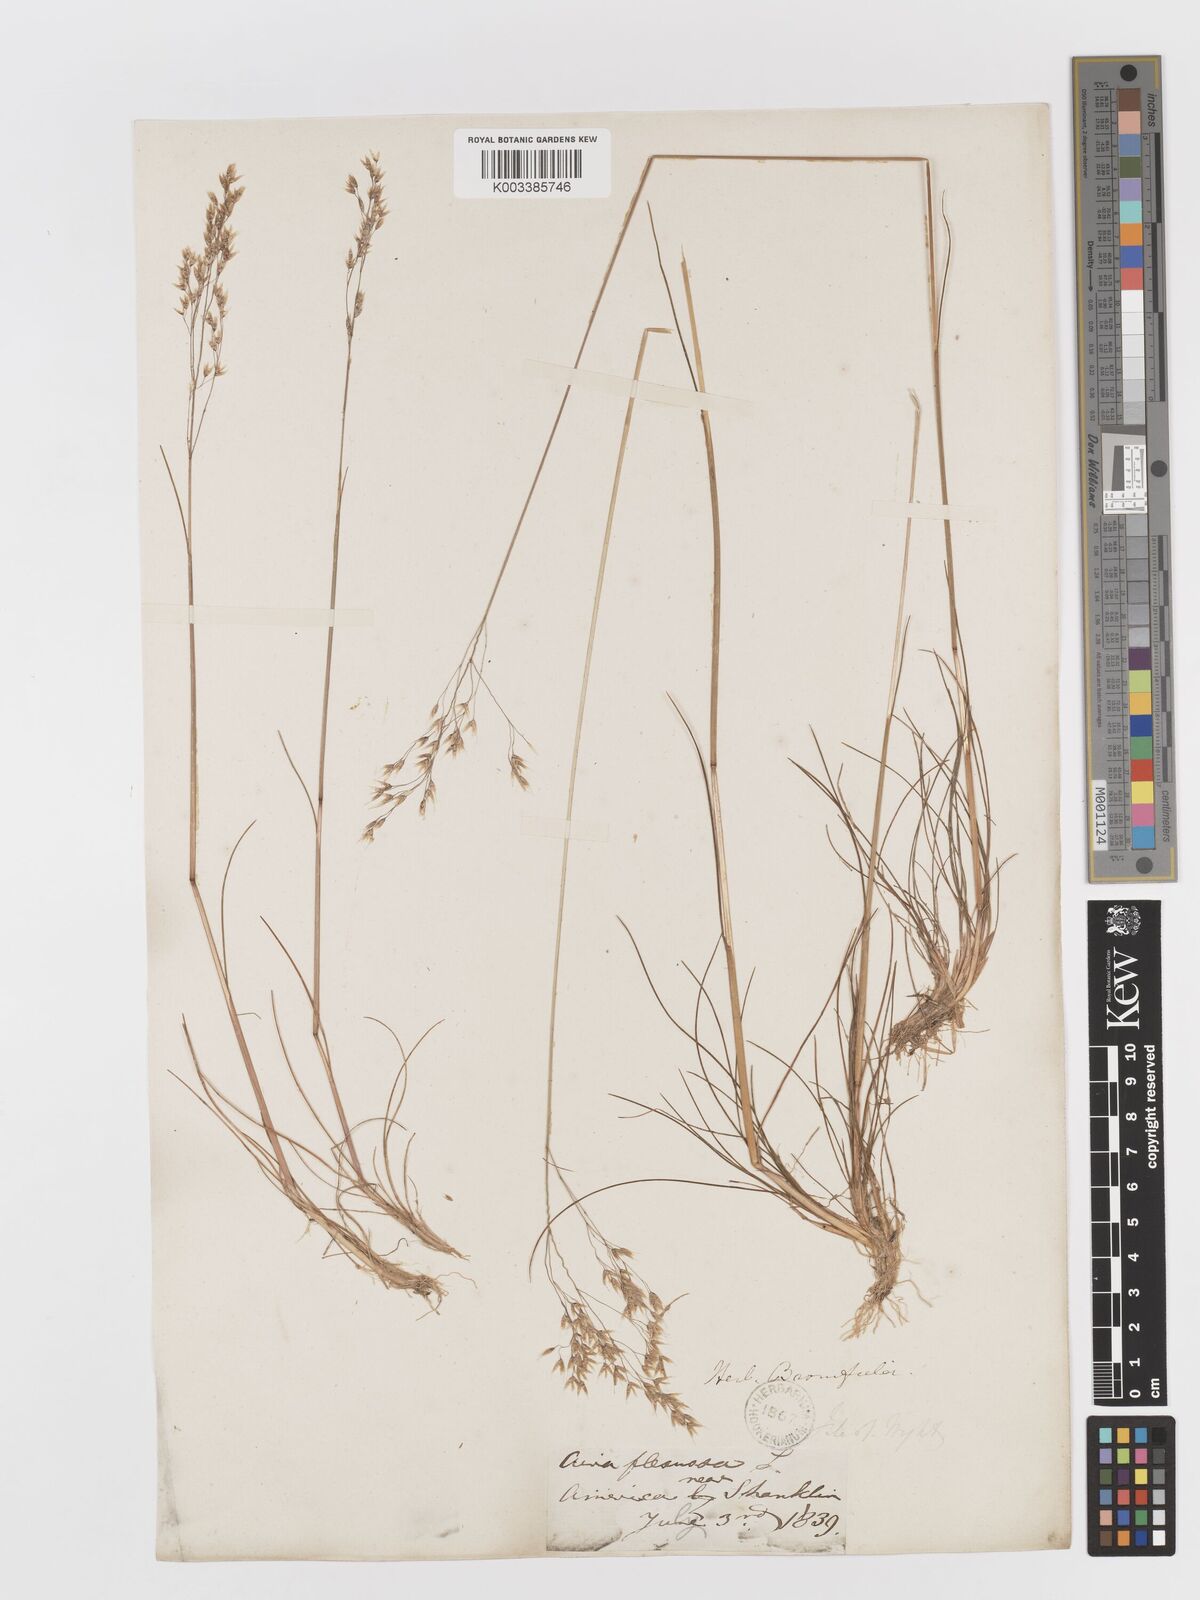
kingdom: Plantae
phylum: Tracheophyta
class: Liliopsida
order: Poales
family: Poaceae
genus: Avenella
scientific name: Avenella flexuosa
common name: Wavy hairgrass
